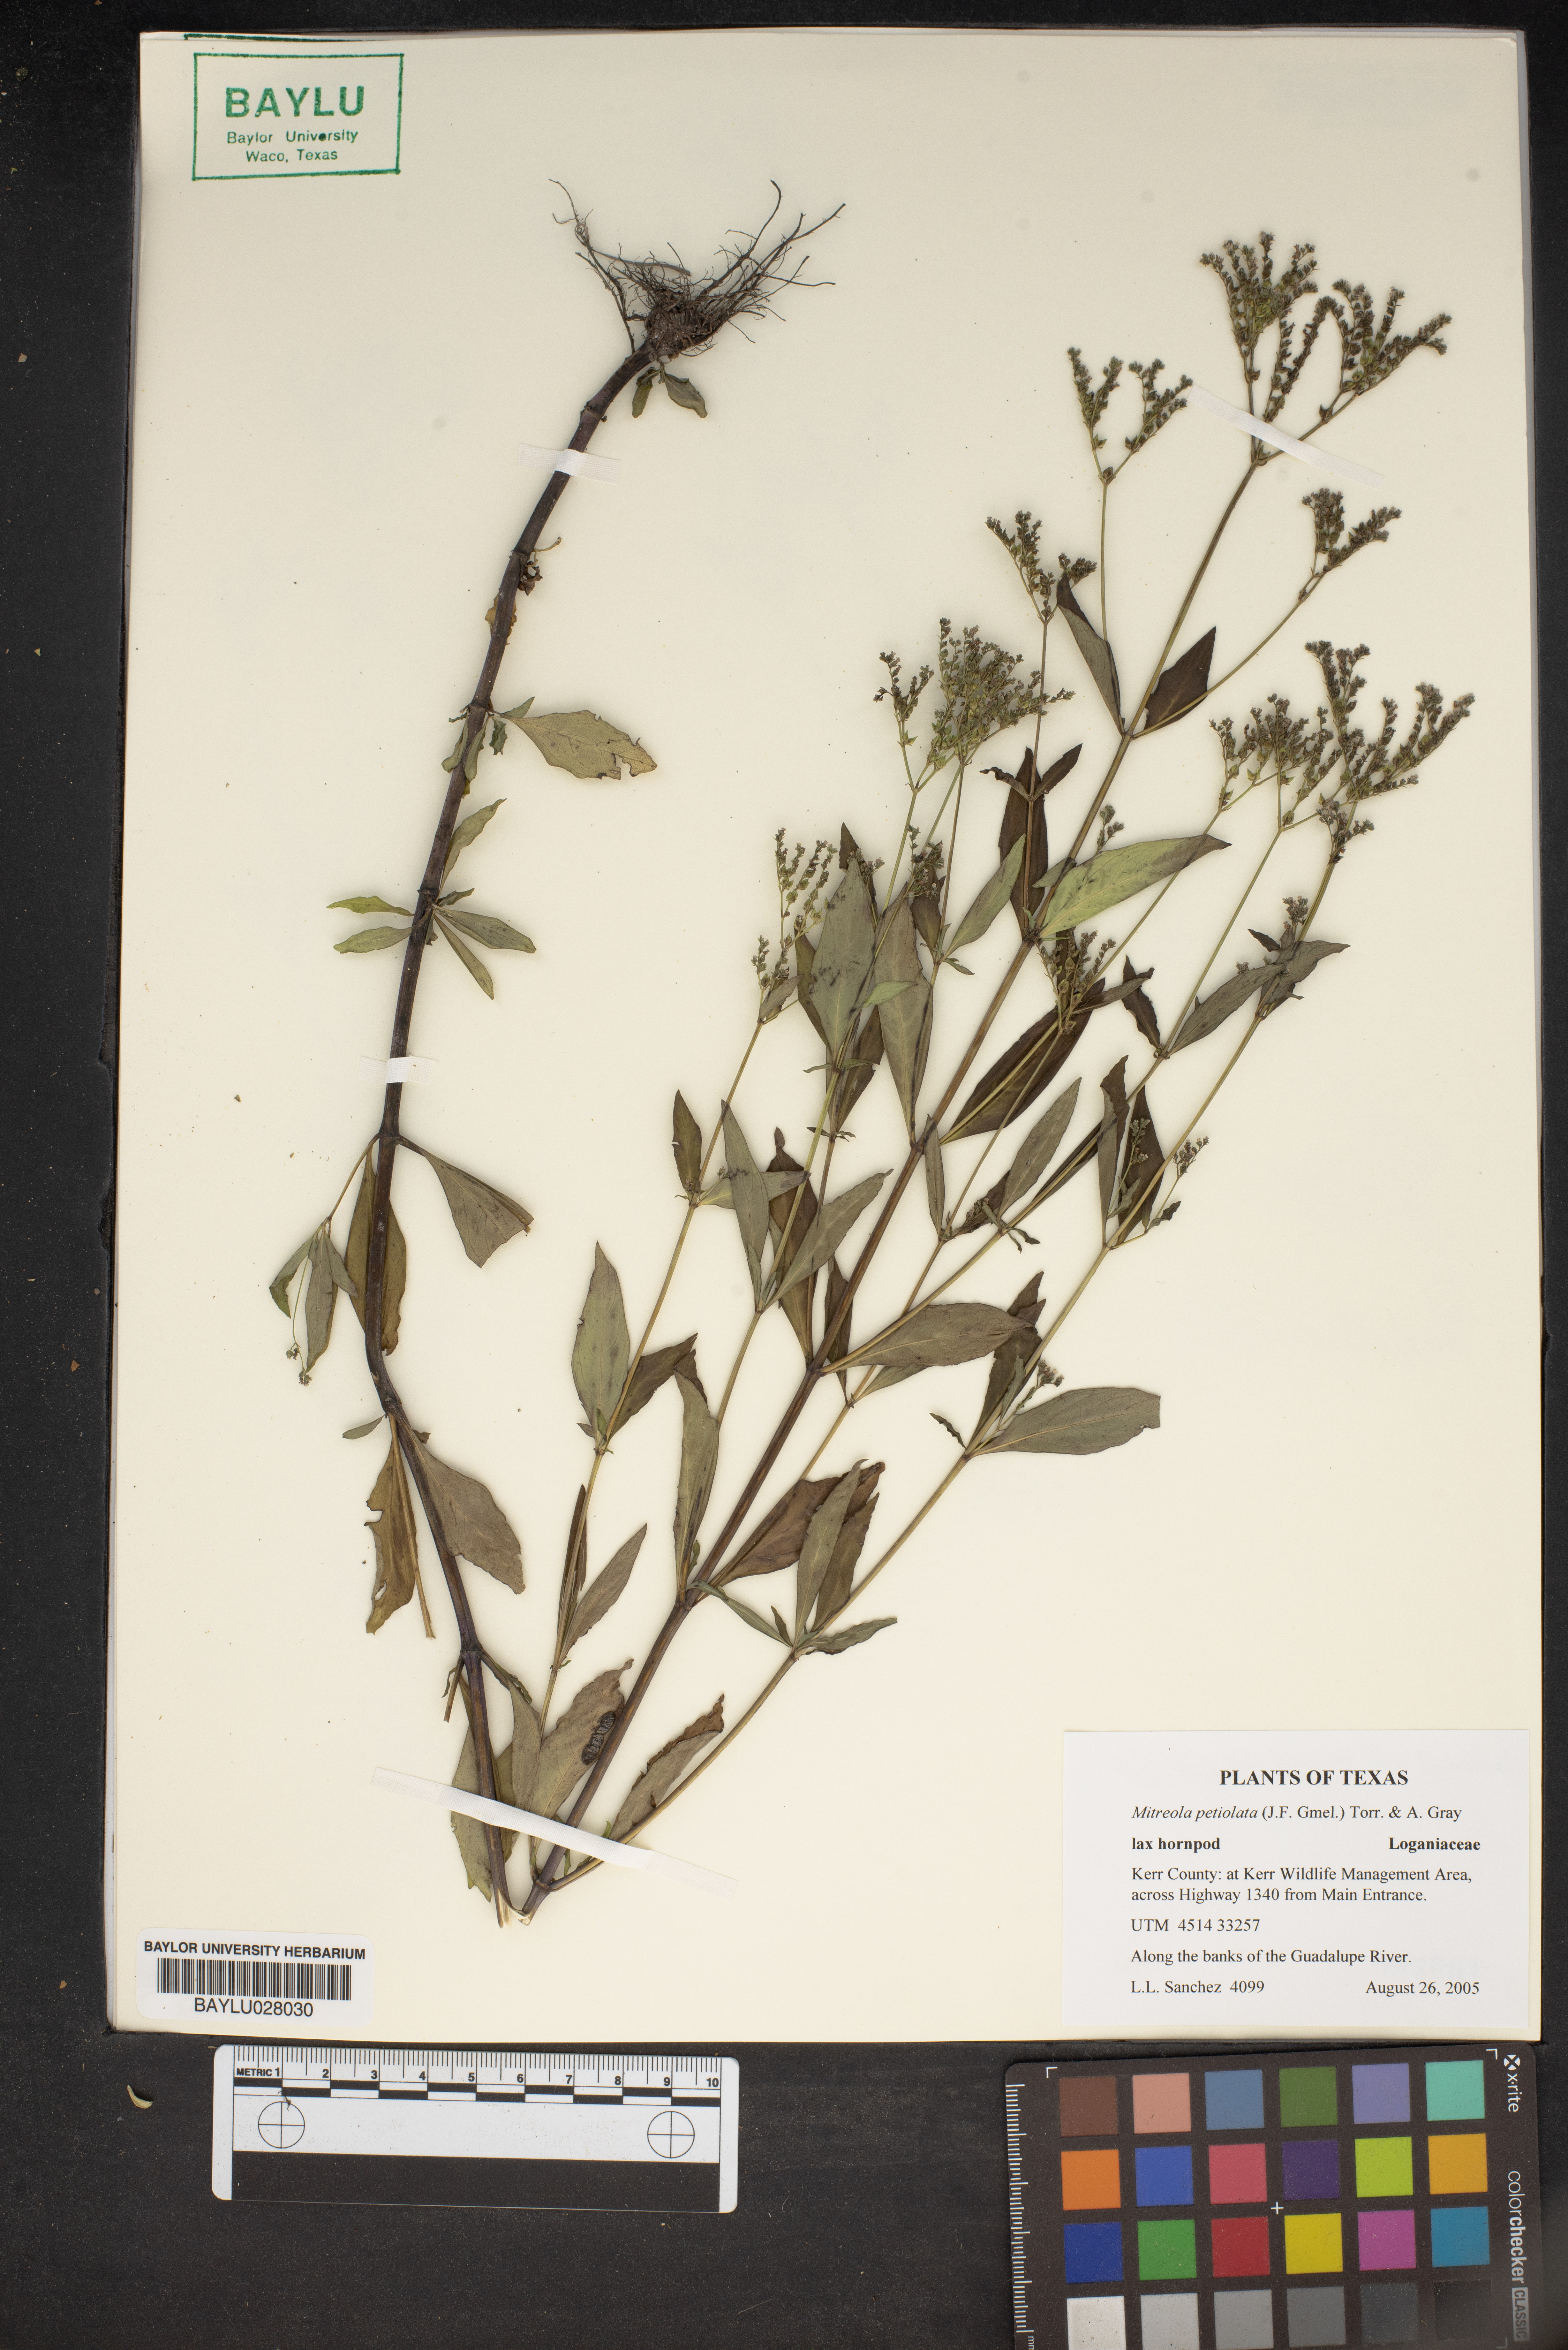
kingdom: Plantae
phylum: Tracheophyta
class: Magnoliopsida
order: Gentianales
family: Loganiaceae
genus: Mitreola
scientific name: Mitreola petiolata
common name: Lax hornpod
